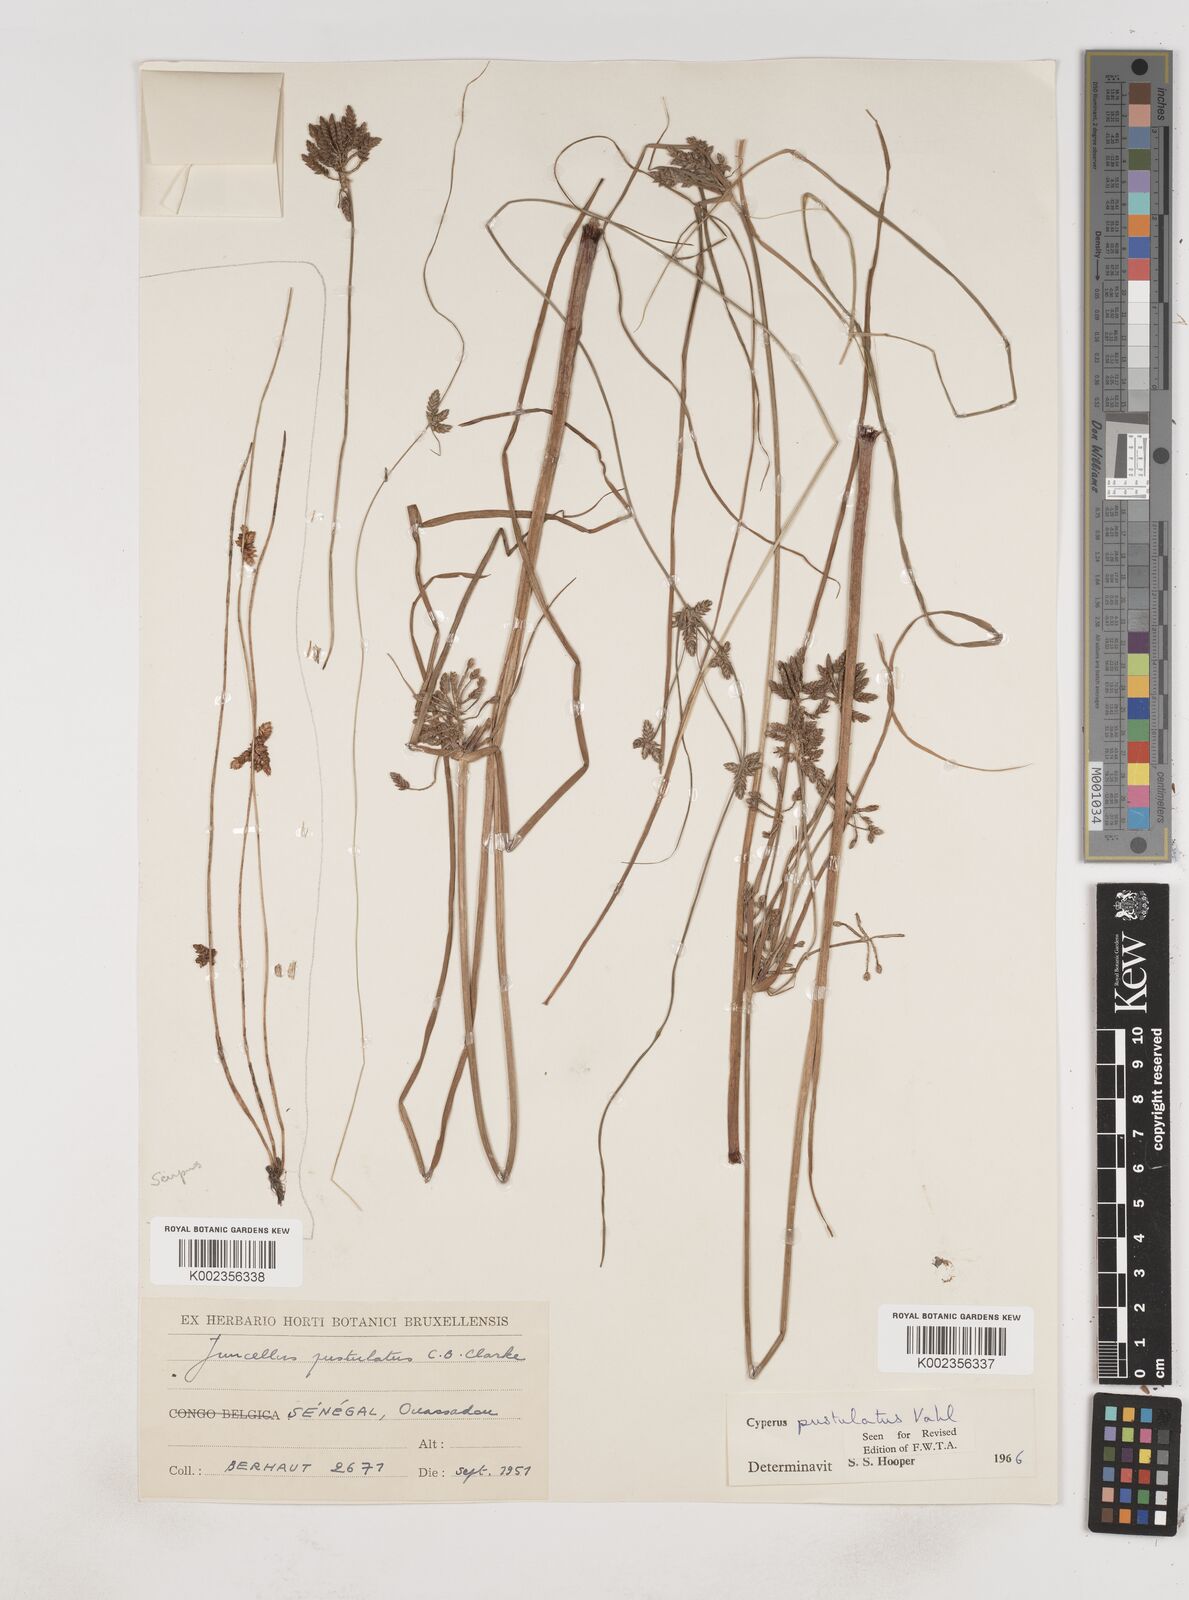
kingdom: Plantae
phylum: Tracheophyta
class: Liliopsida
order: Poales
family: Cyperaceae
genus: Cyperus
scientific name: Cyperus pustulatus
